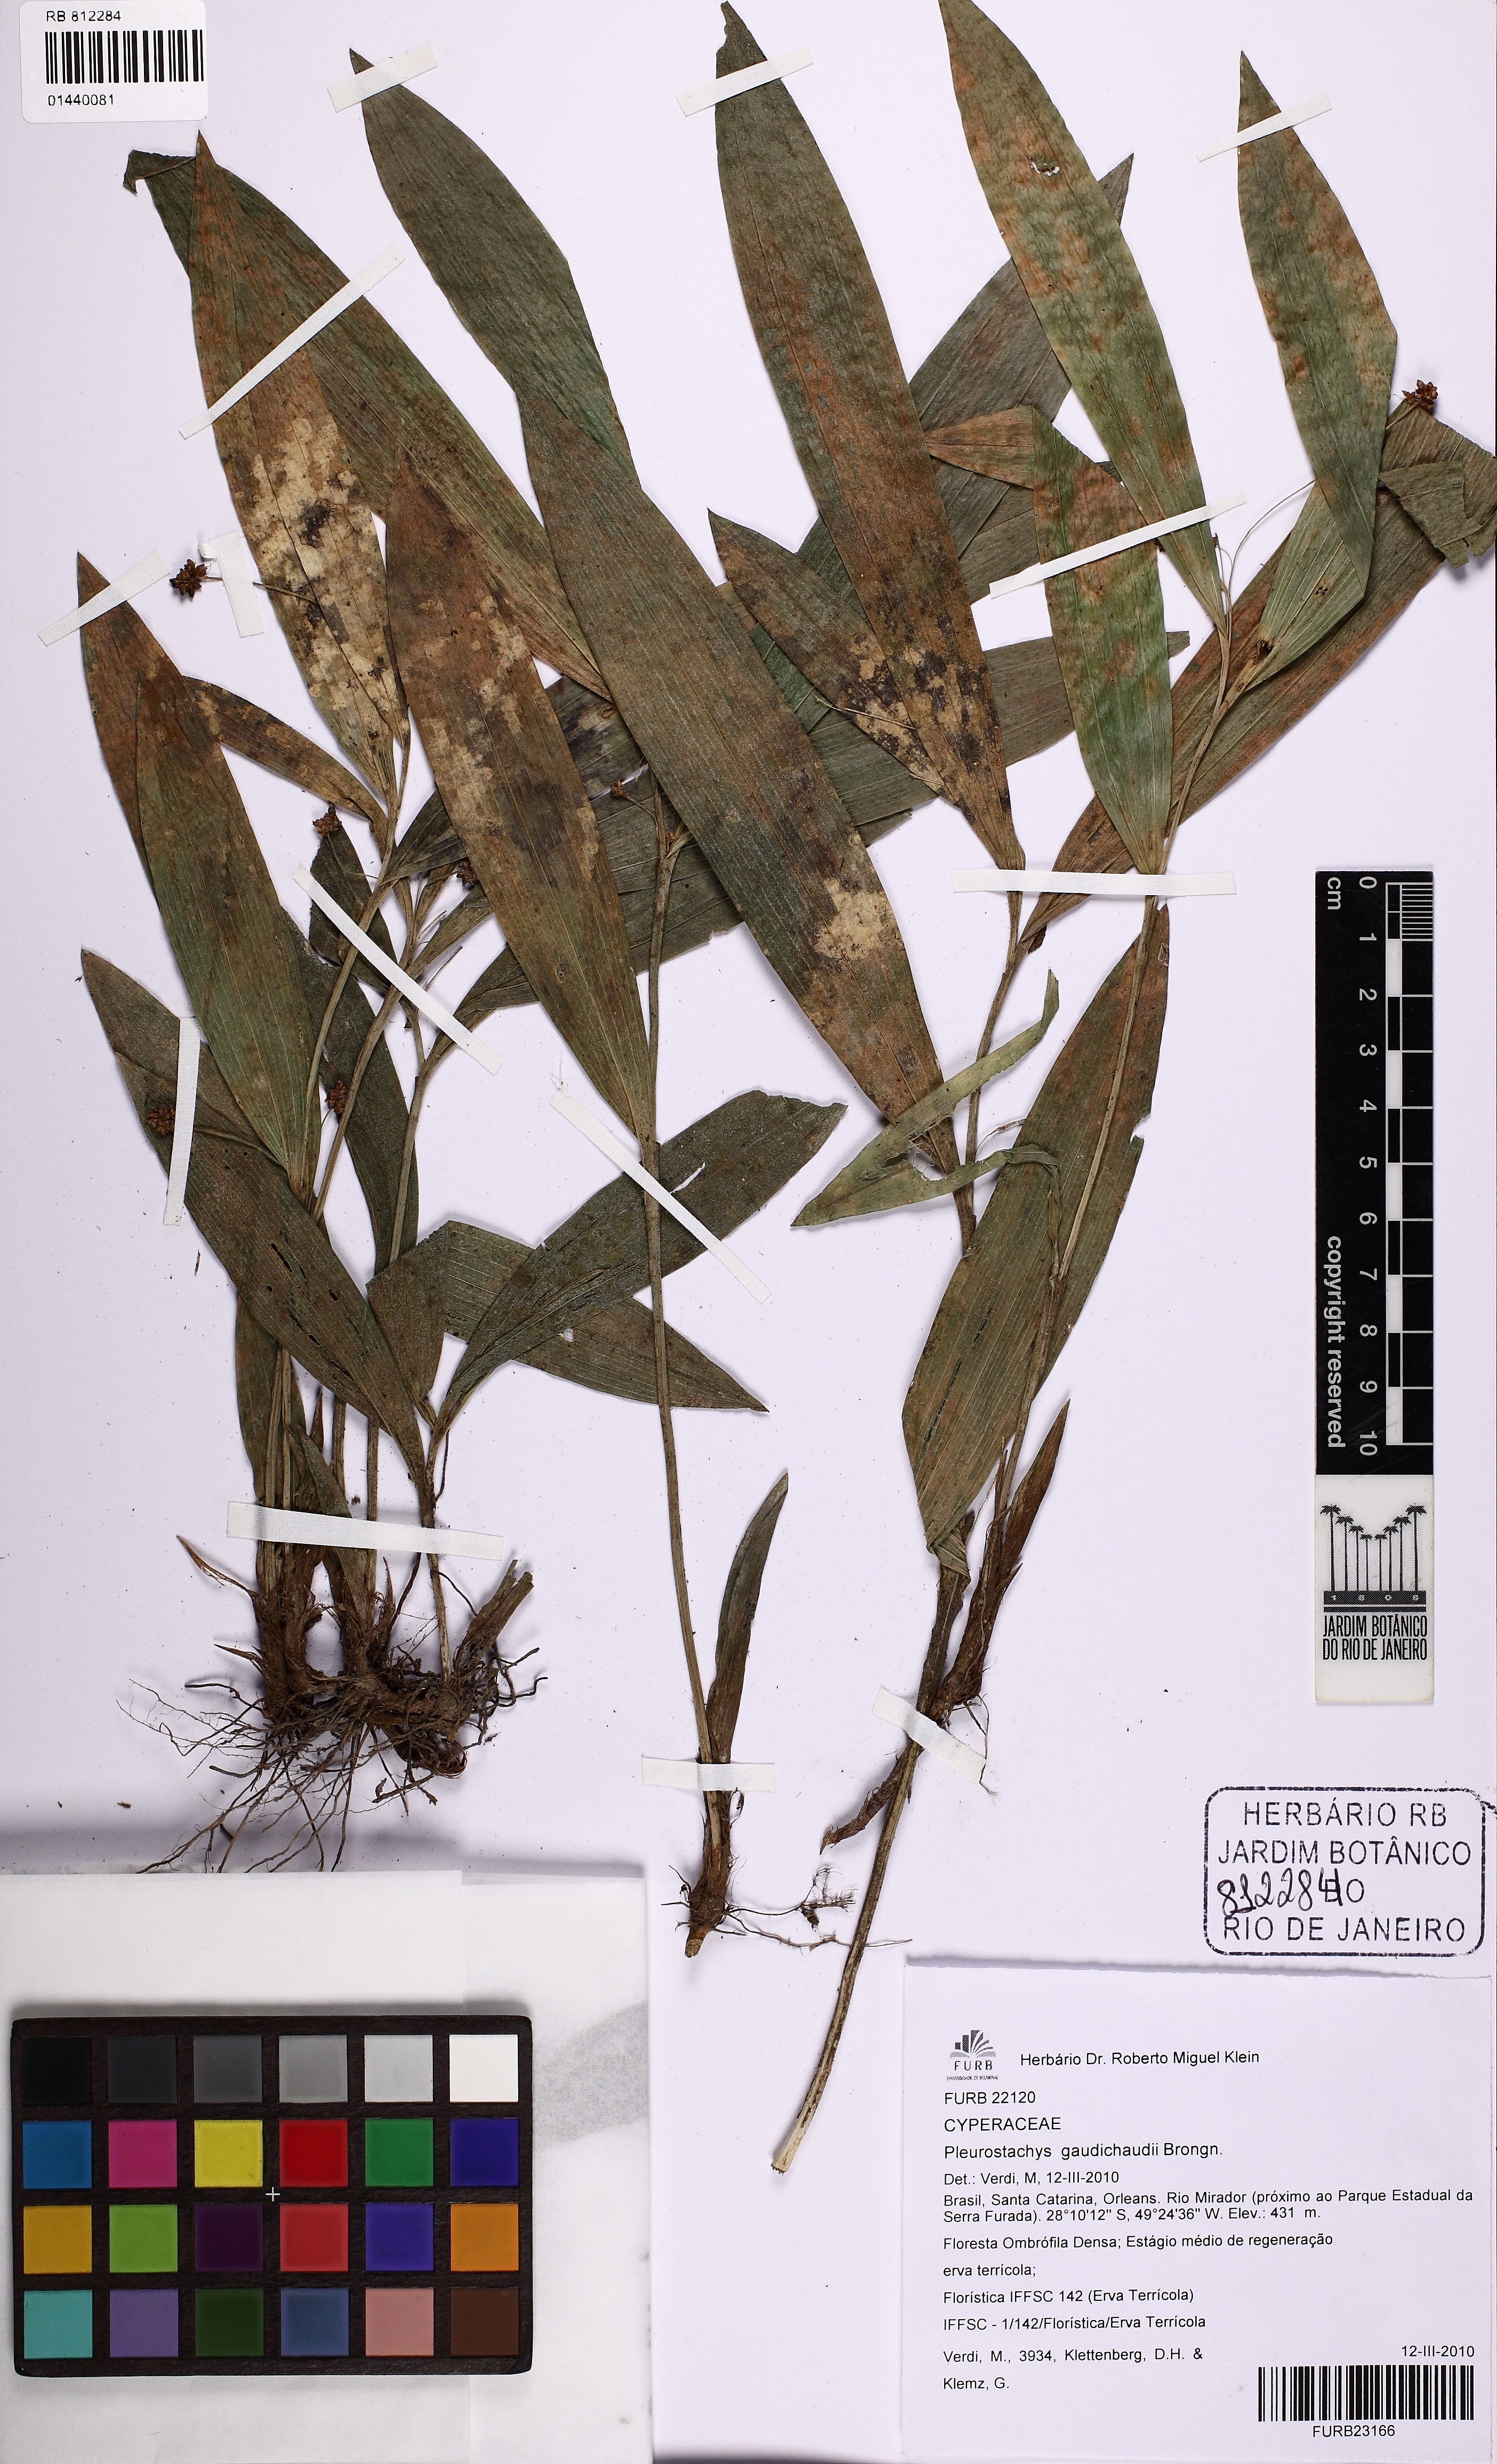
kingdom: Plantae
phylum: Tracheophyta
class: Liliopsida
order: Poales
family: Cyperaceae
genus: Rhynchospora
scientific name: Rhynchospora gaudichaudii
